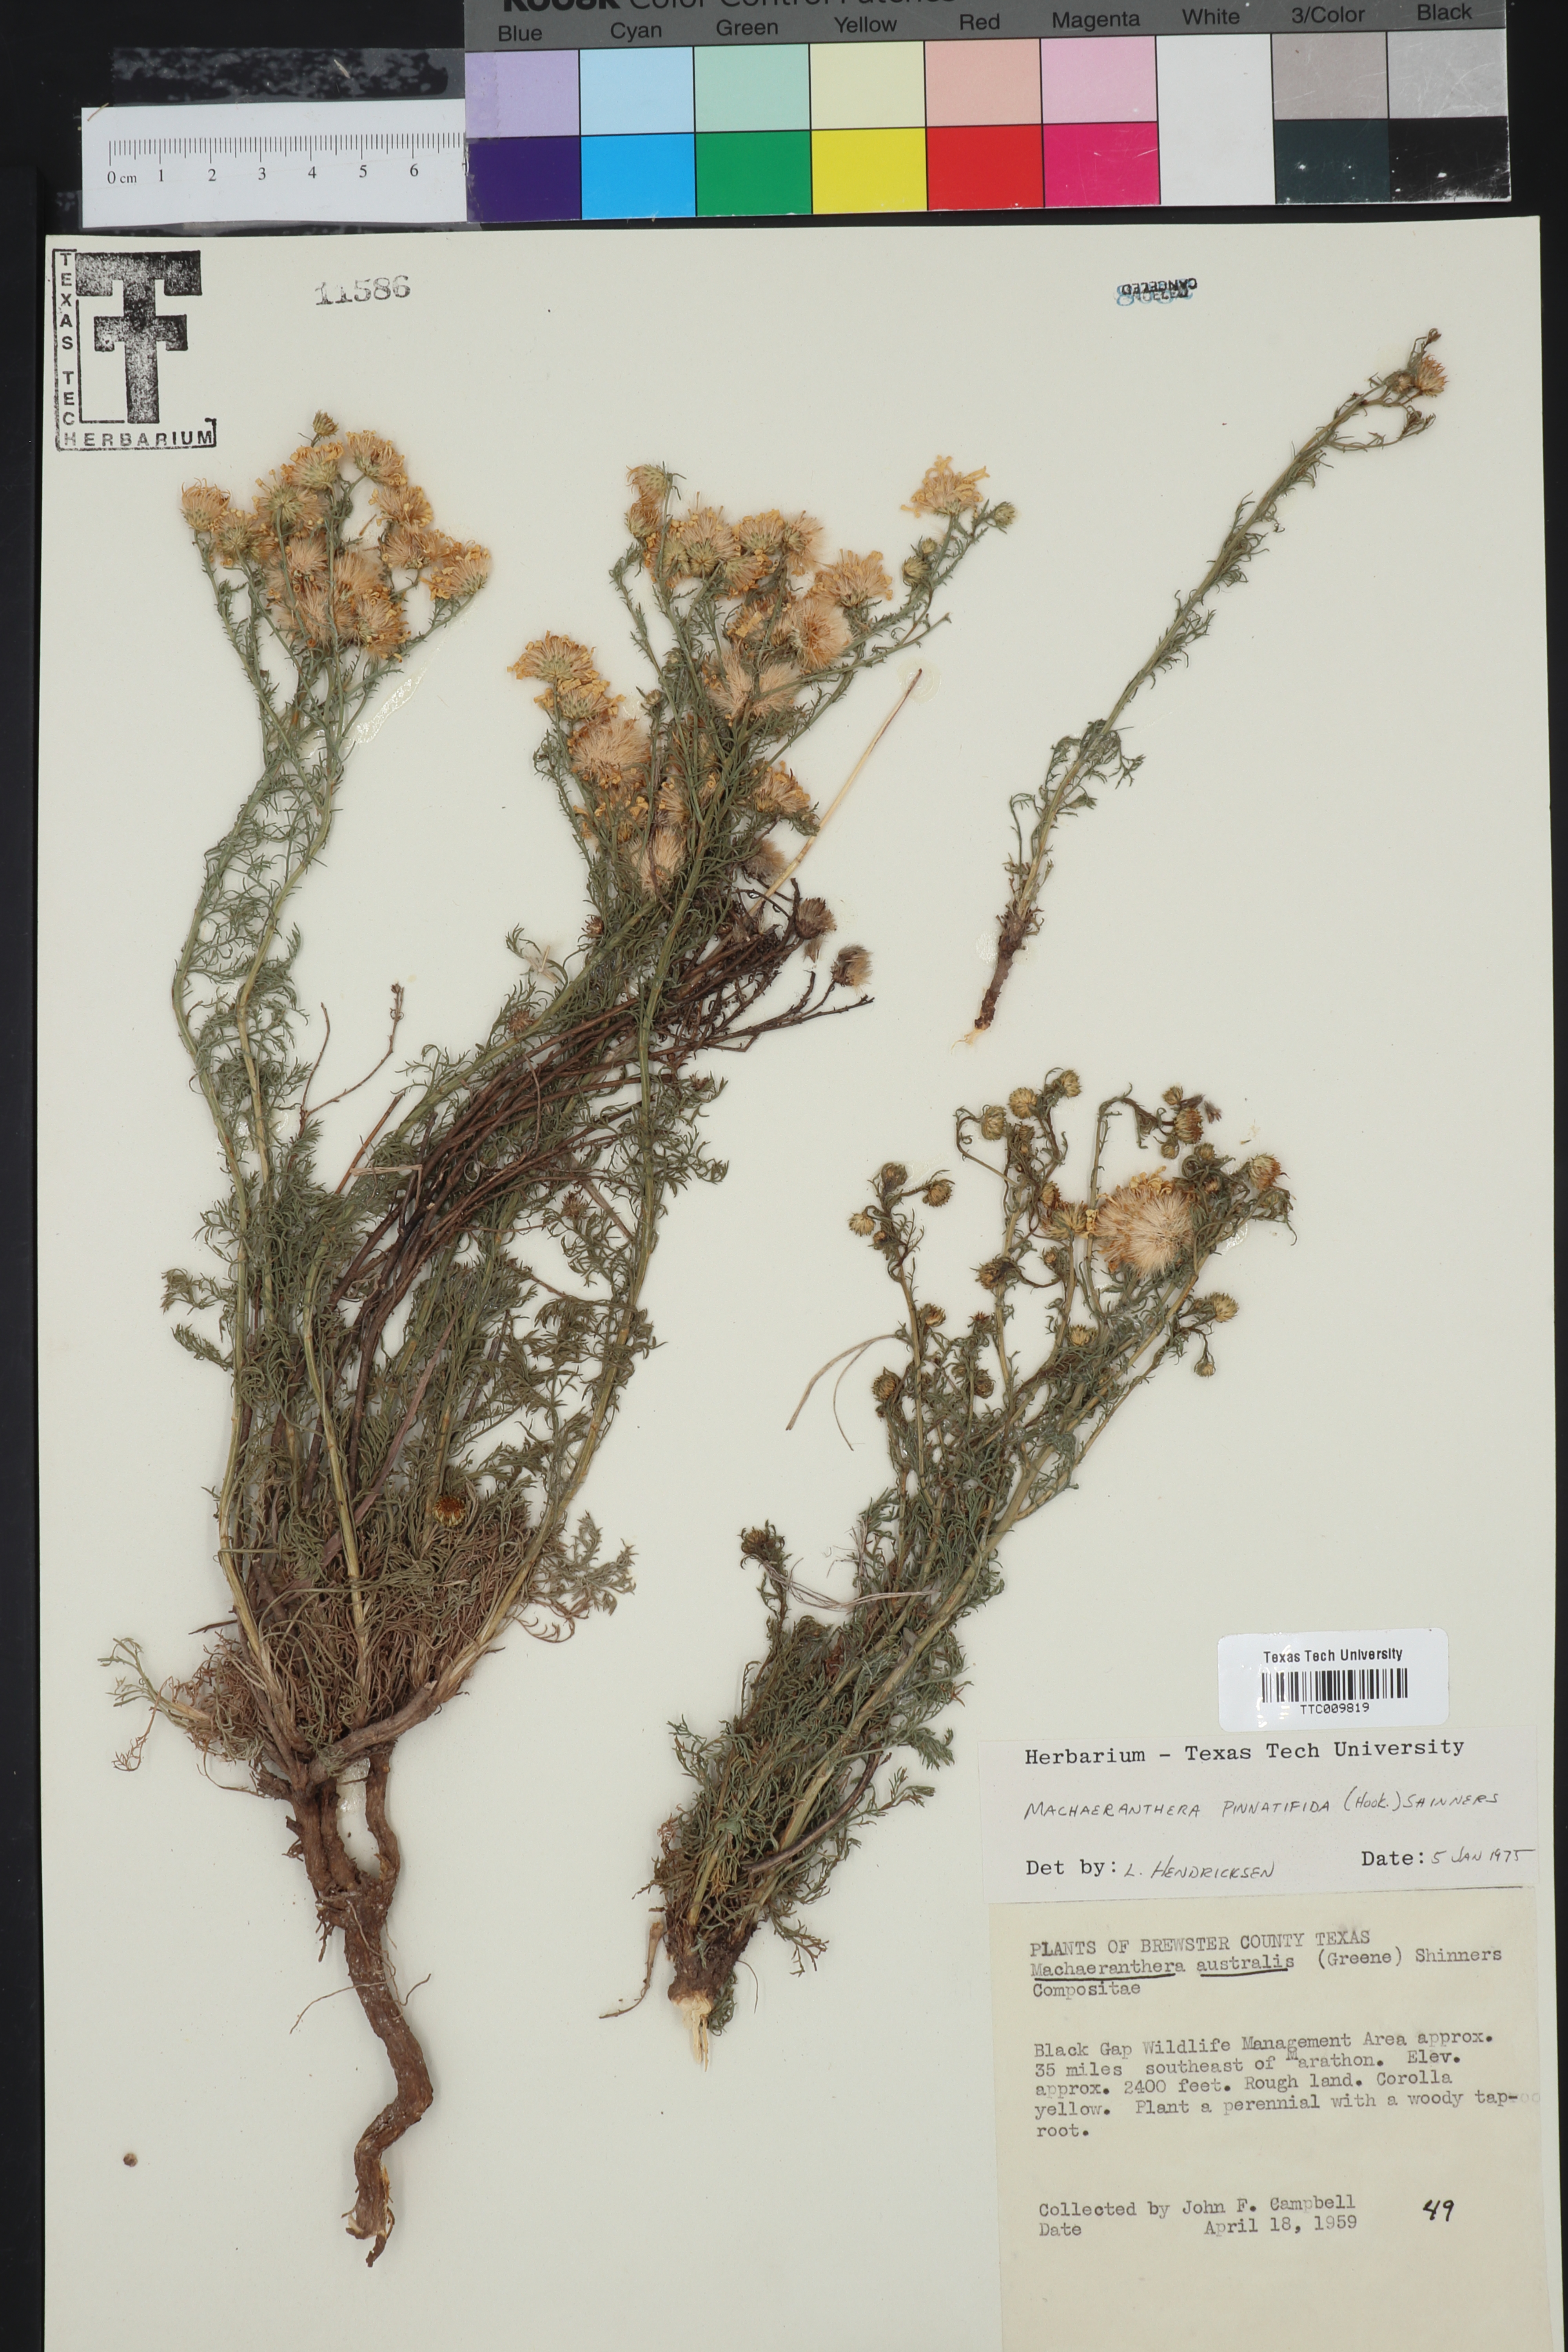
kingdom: Plantae
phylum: Tracheophyta
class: Magnoliopsida
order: Asterales
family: Asteraceae
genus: Xanthisma
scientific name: Xanthisma spinulosum
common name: Spiny goldenweed
